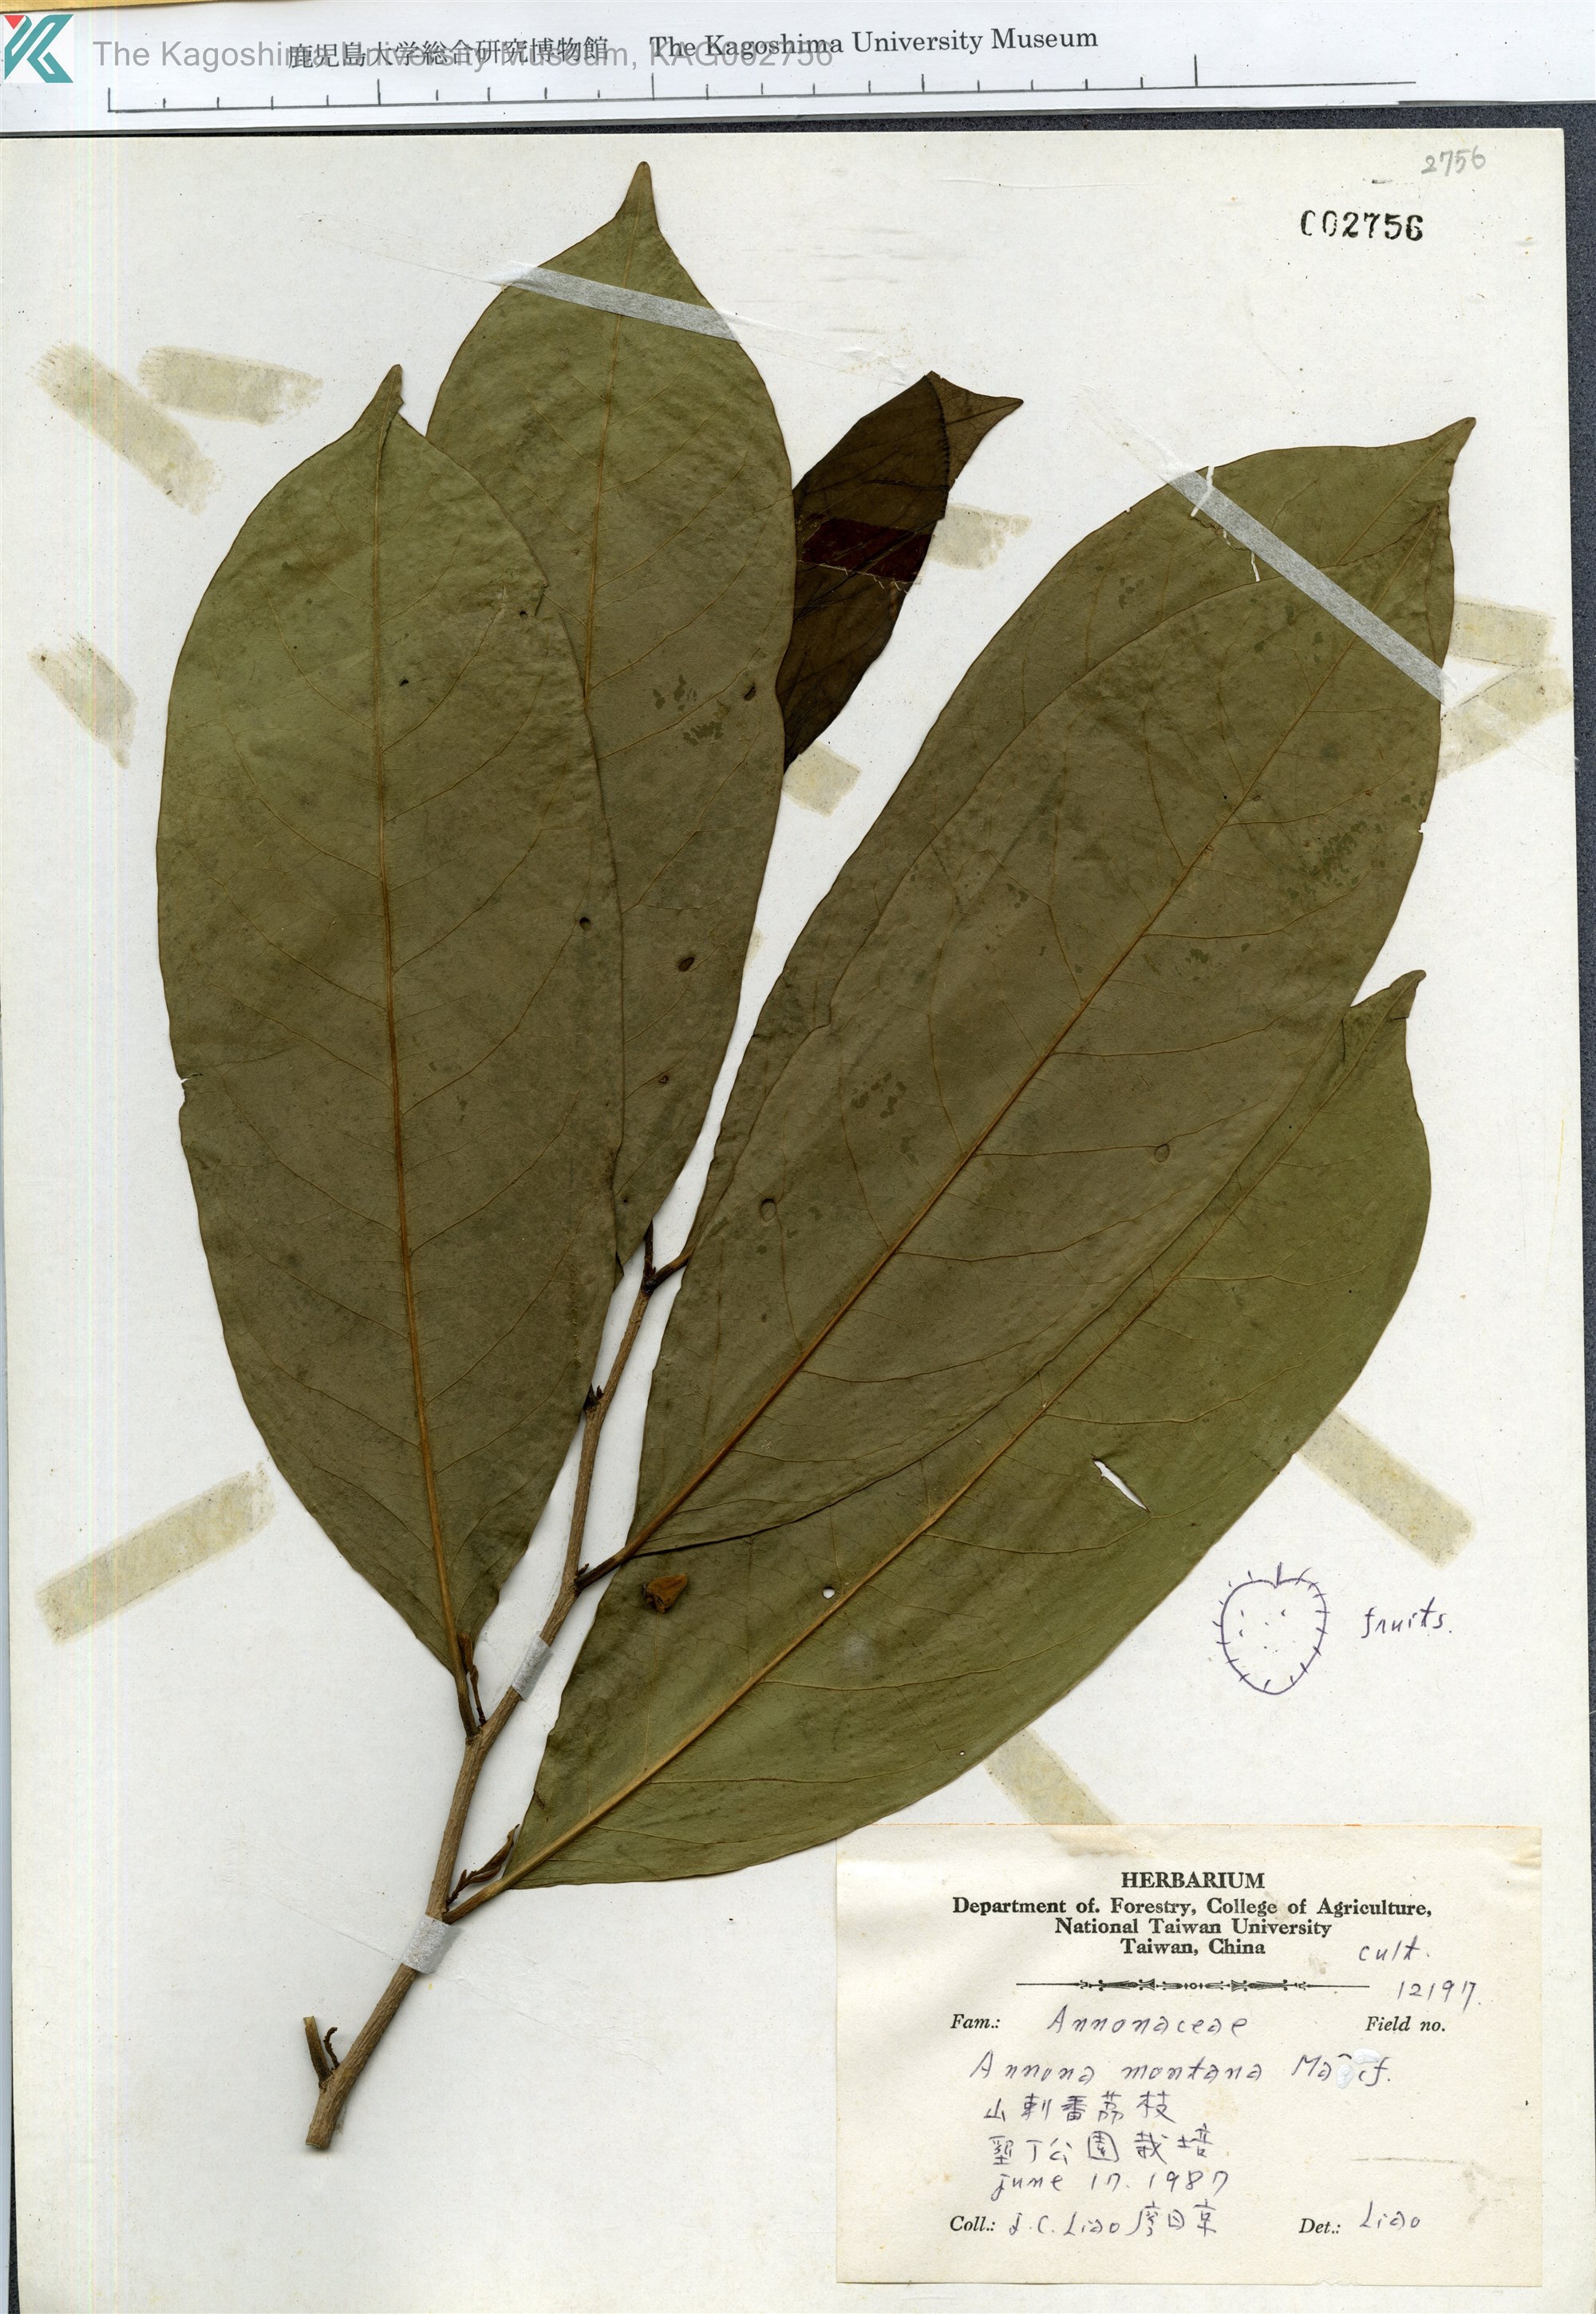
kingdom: Plantae
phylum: Tracheophyta
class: Magnoliopsida
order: Magnoliales
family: Annonaceae
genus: Annona
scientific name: Annona montana
